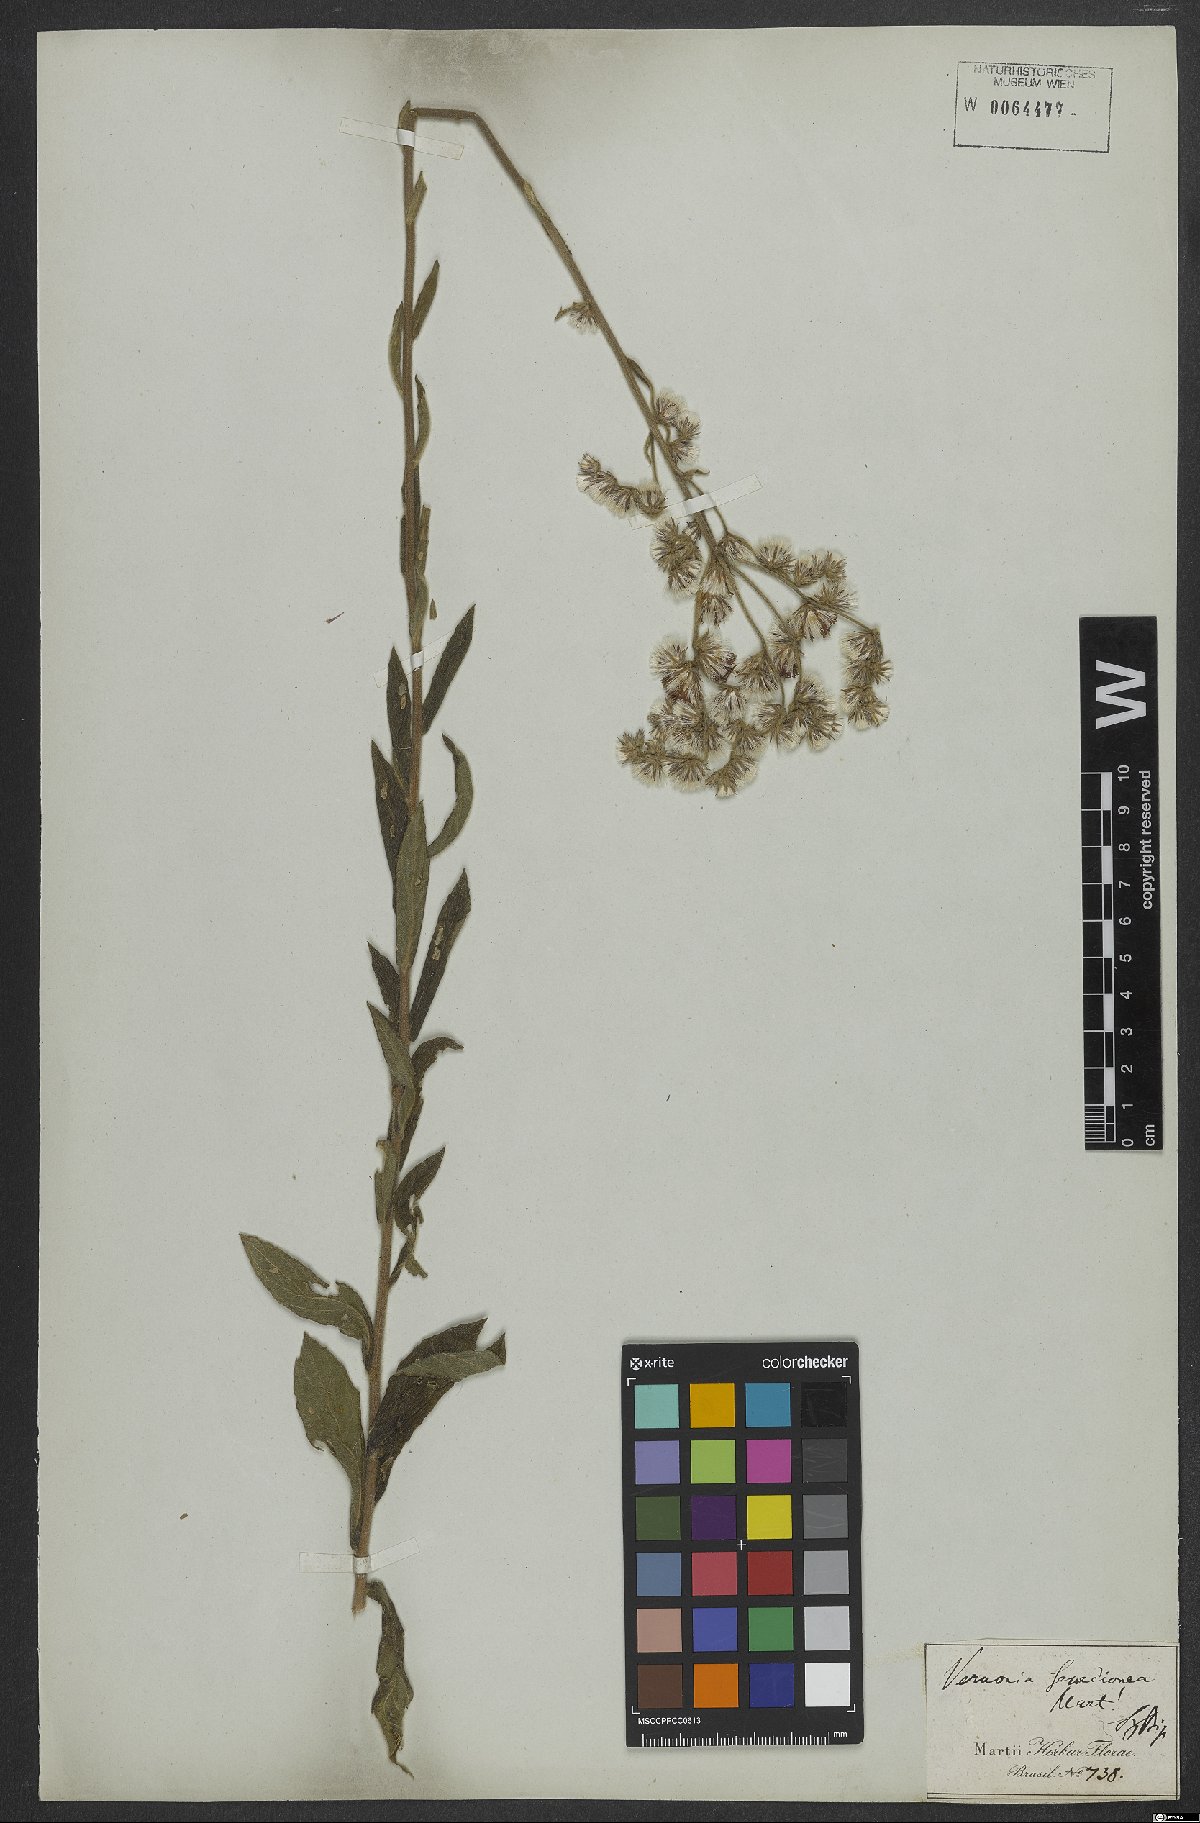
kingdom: Plantae
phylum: Tracheophyta
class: Magnoliopsida
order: Asterales
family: Asteraceae
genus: Lessingianthus
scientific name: Lessingianthus coriaceus
